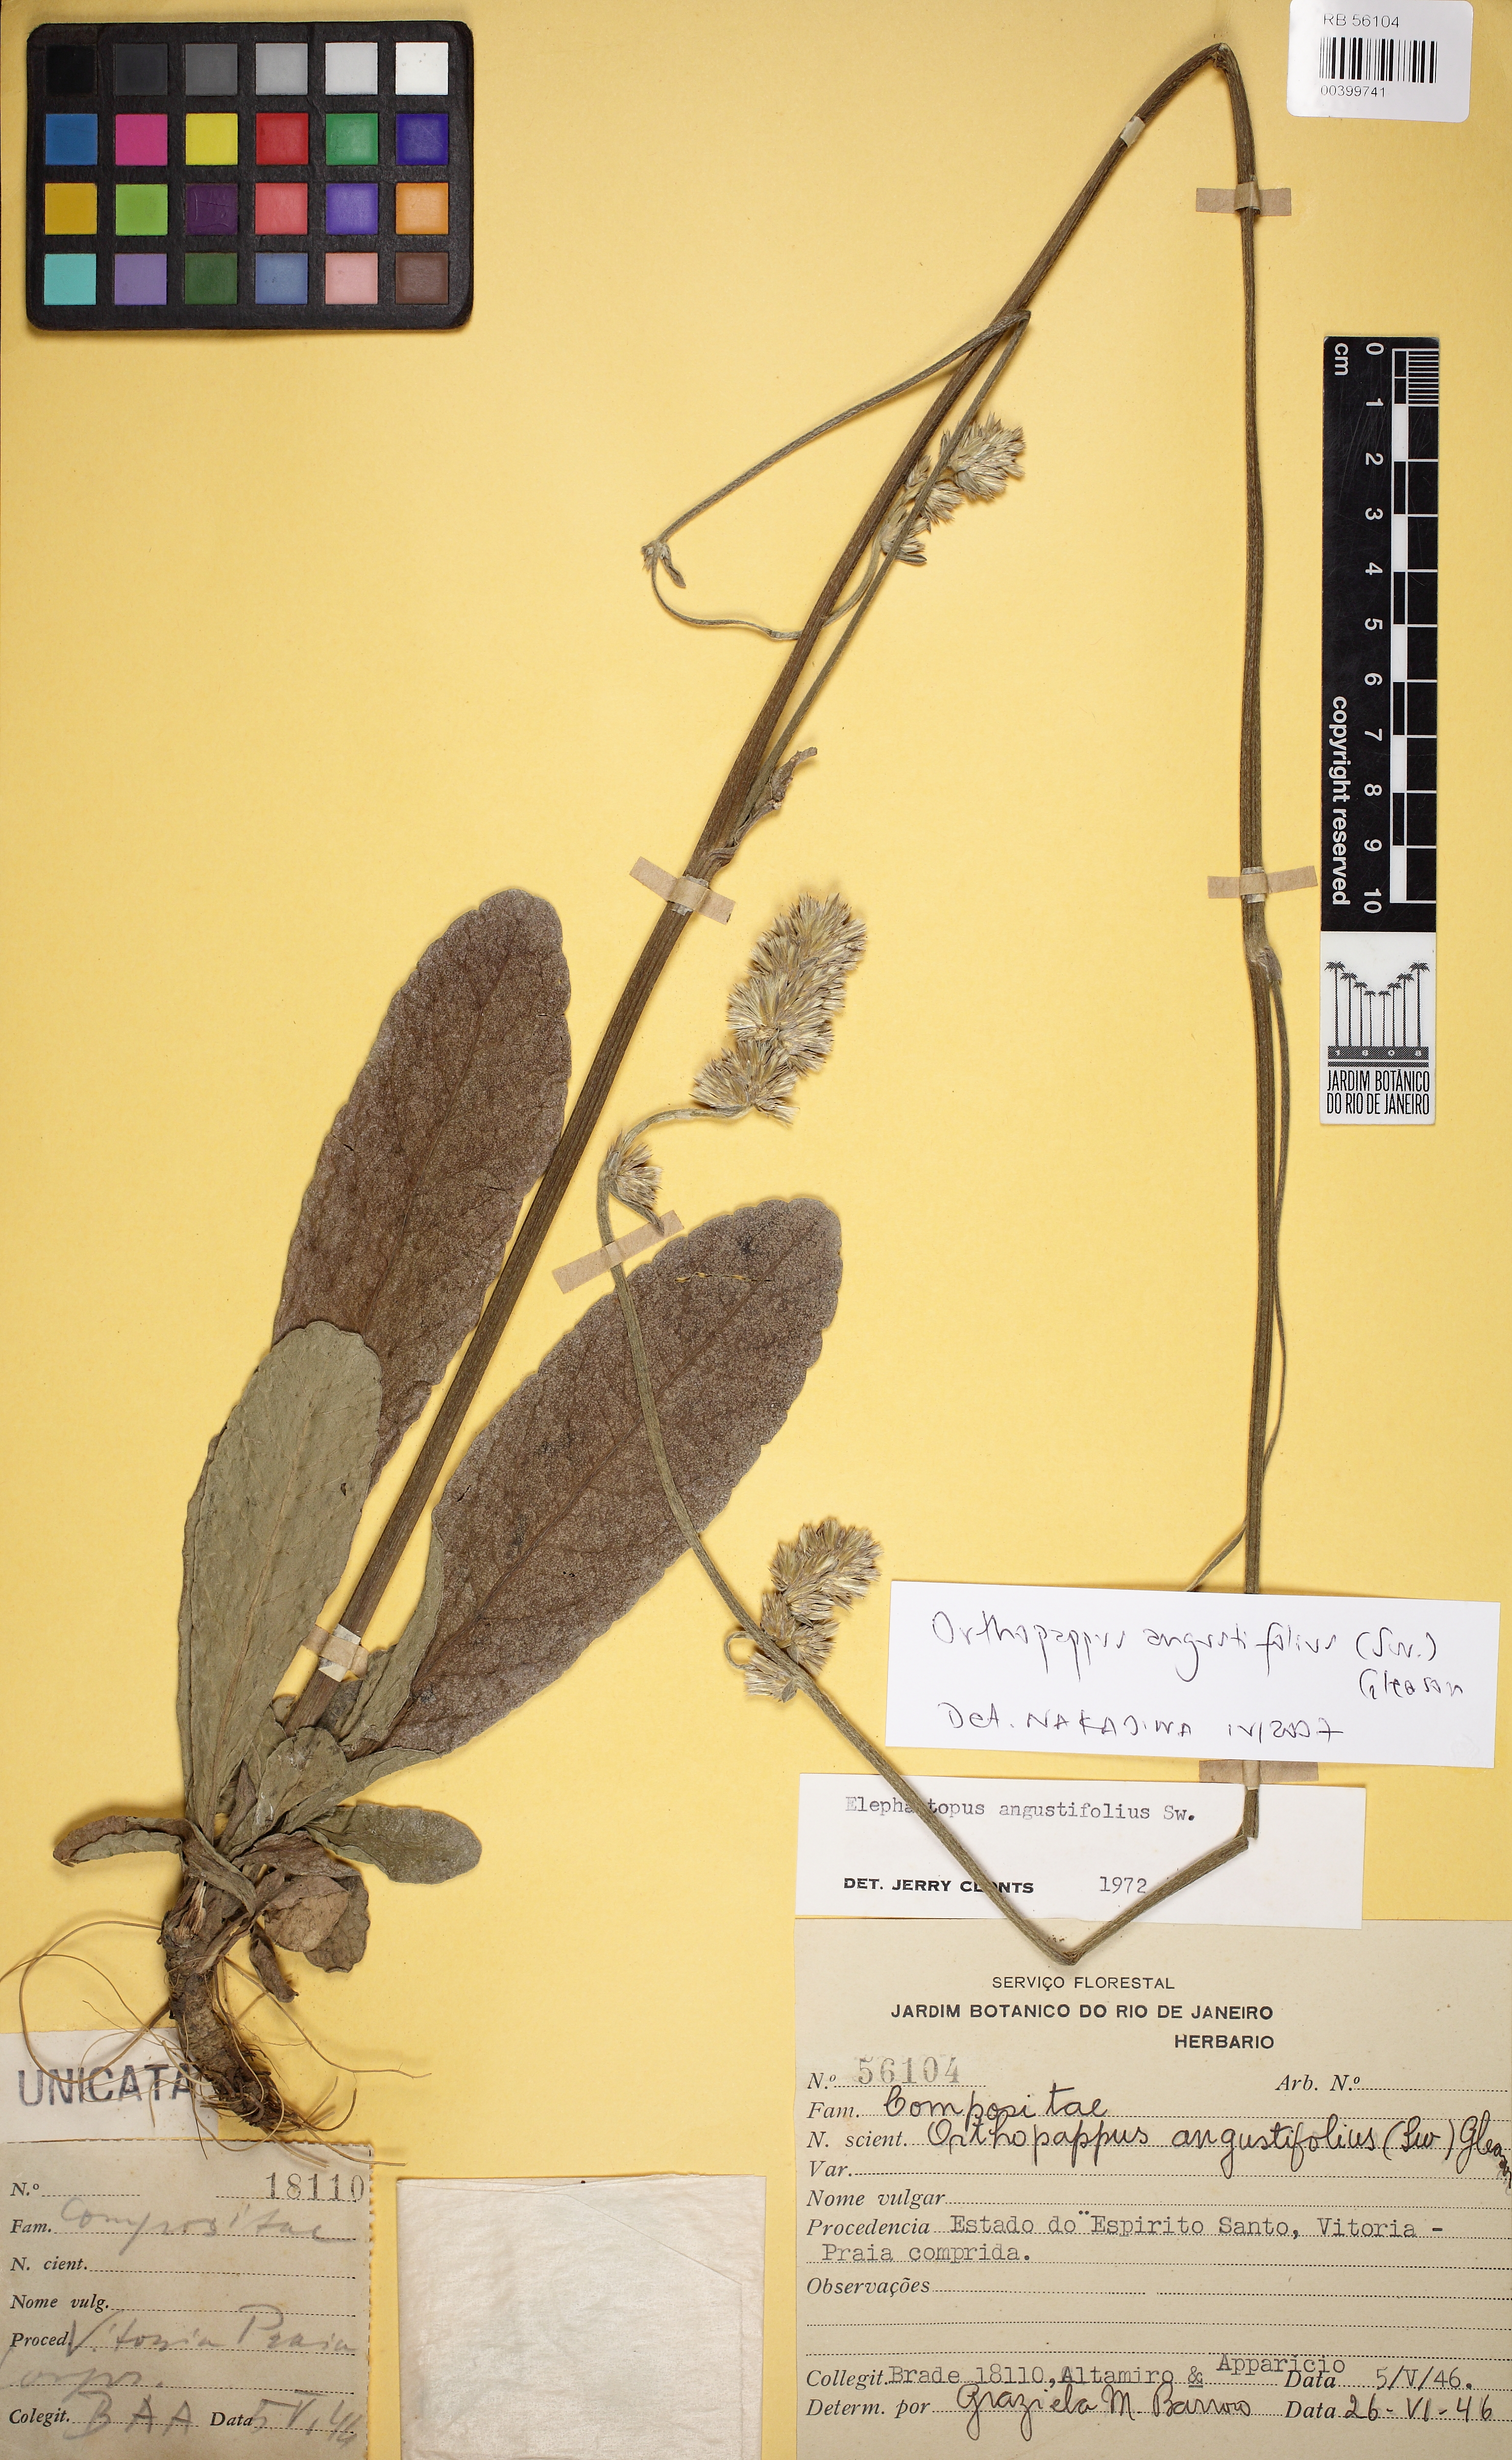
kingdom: Plantae
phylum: Tracheophyta
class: Magnoliopsida
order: Asterales
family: Asteraceae
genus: Orthopappus
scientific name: Orthopappus angustifolius
